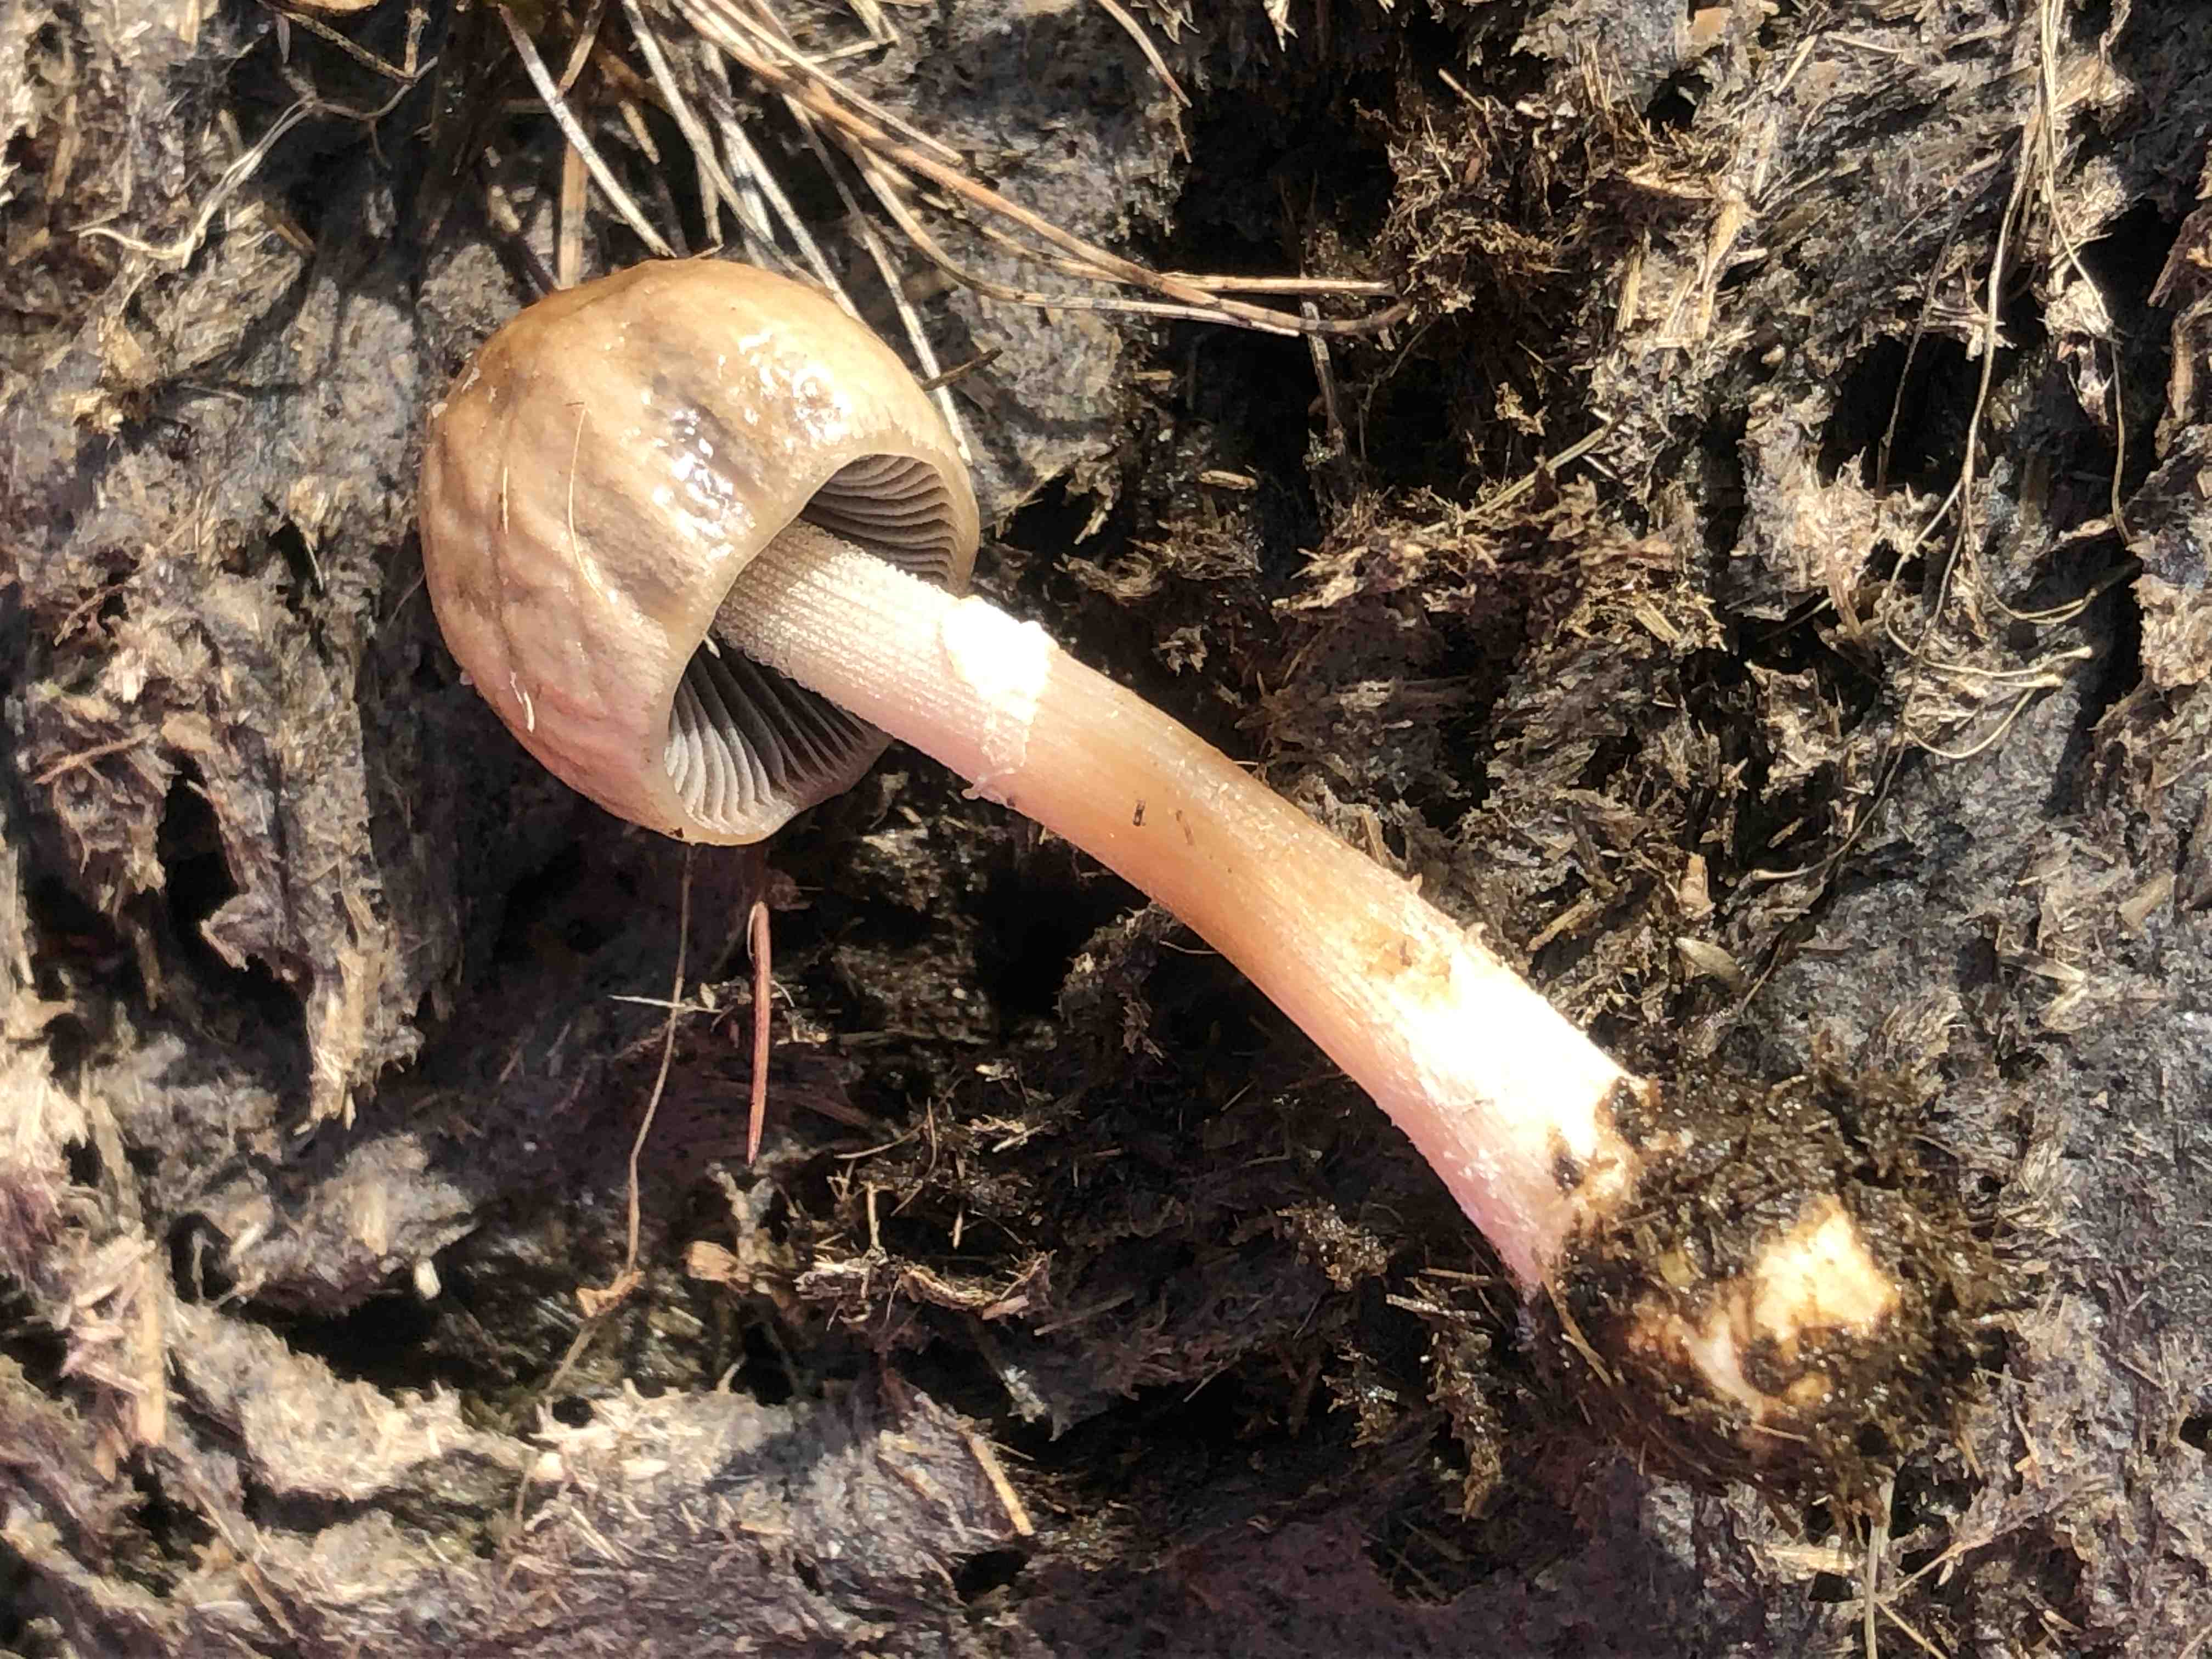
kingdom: Fungi
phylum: Basidiomycota
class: Agaricomycetes
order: Agaricales
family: Bolbitiaceae
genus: Panaeolus
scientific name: Panaeolus semiovatus
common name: ring-glanshat
